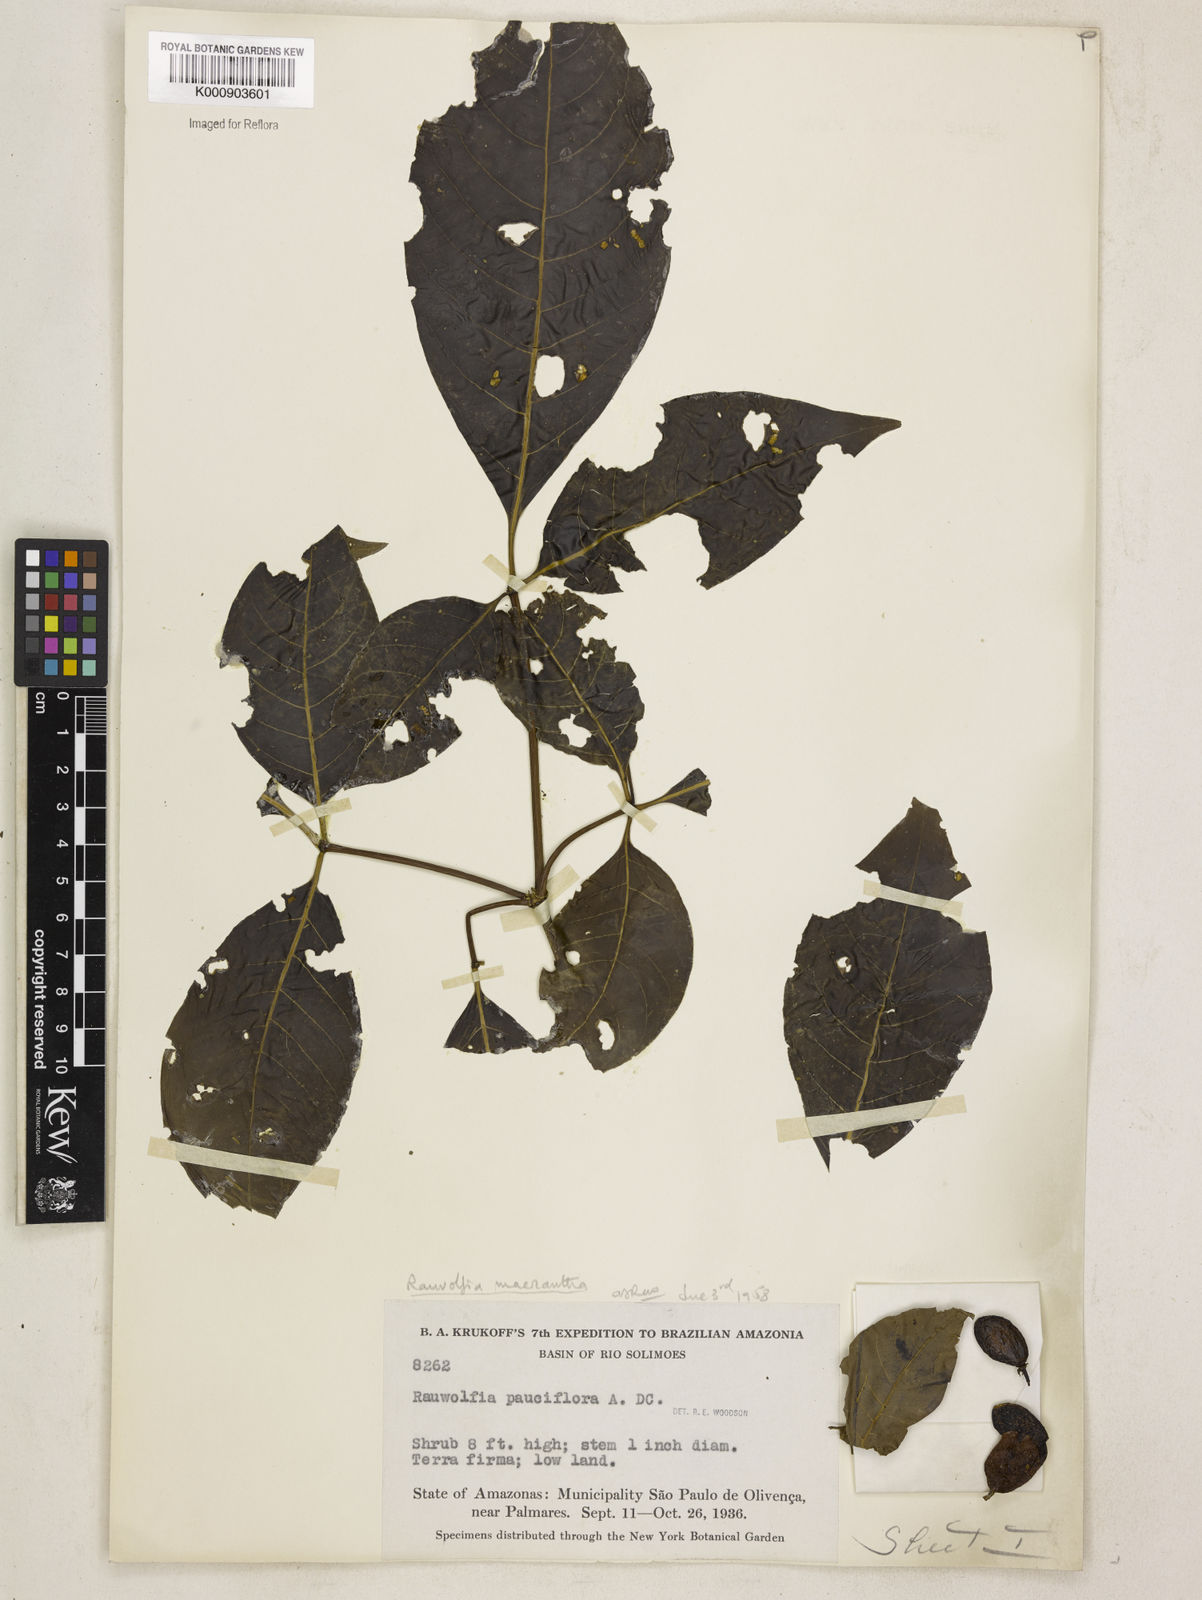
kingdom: Plantae
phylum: Tracheophyta
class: Magnoliopsida
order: Gentianales
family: Apocynaceae
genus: Rauvolfia
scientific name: Rauvolfia macrantha
